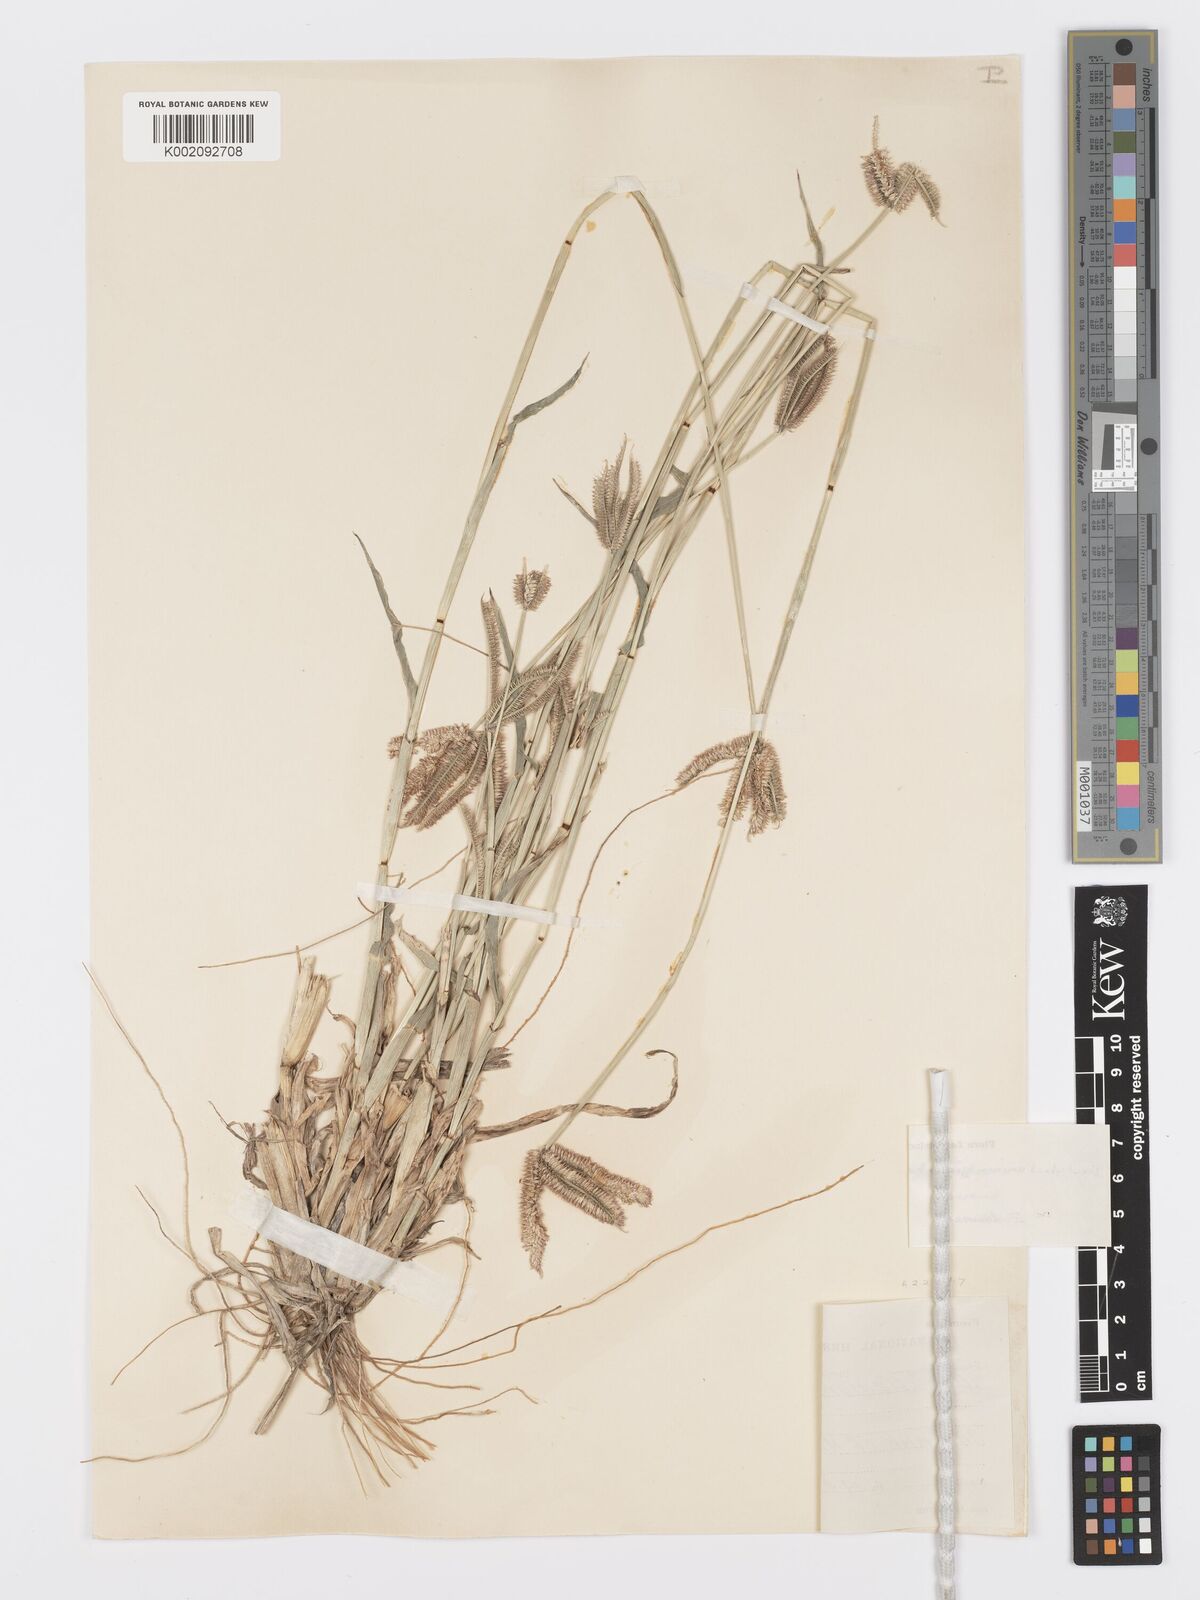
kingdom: Plantae
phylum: Tracheophyta
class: Liliopsida
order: Poales
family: Poaceae
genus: Dactyloctenium
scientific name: Dactyloctenium giganteum
